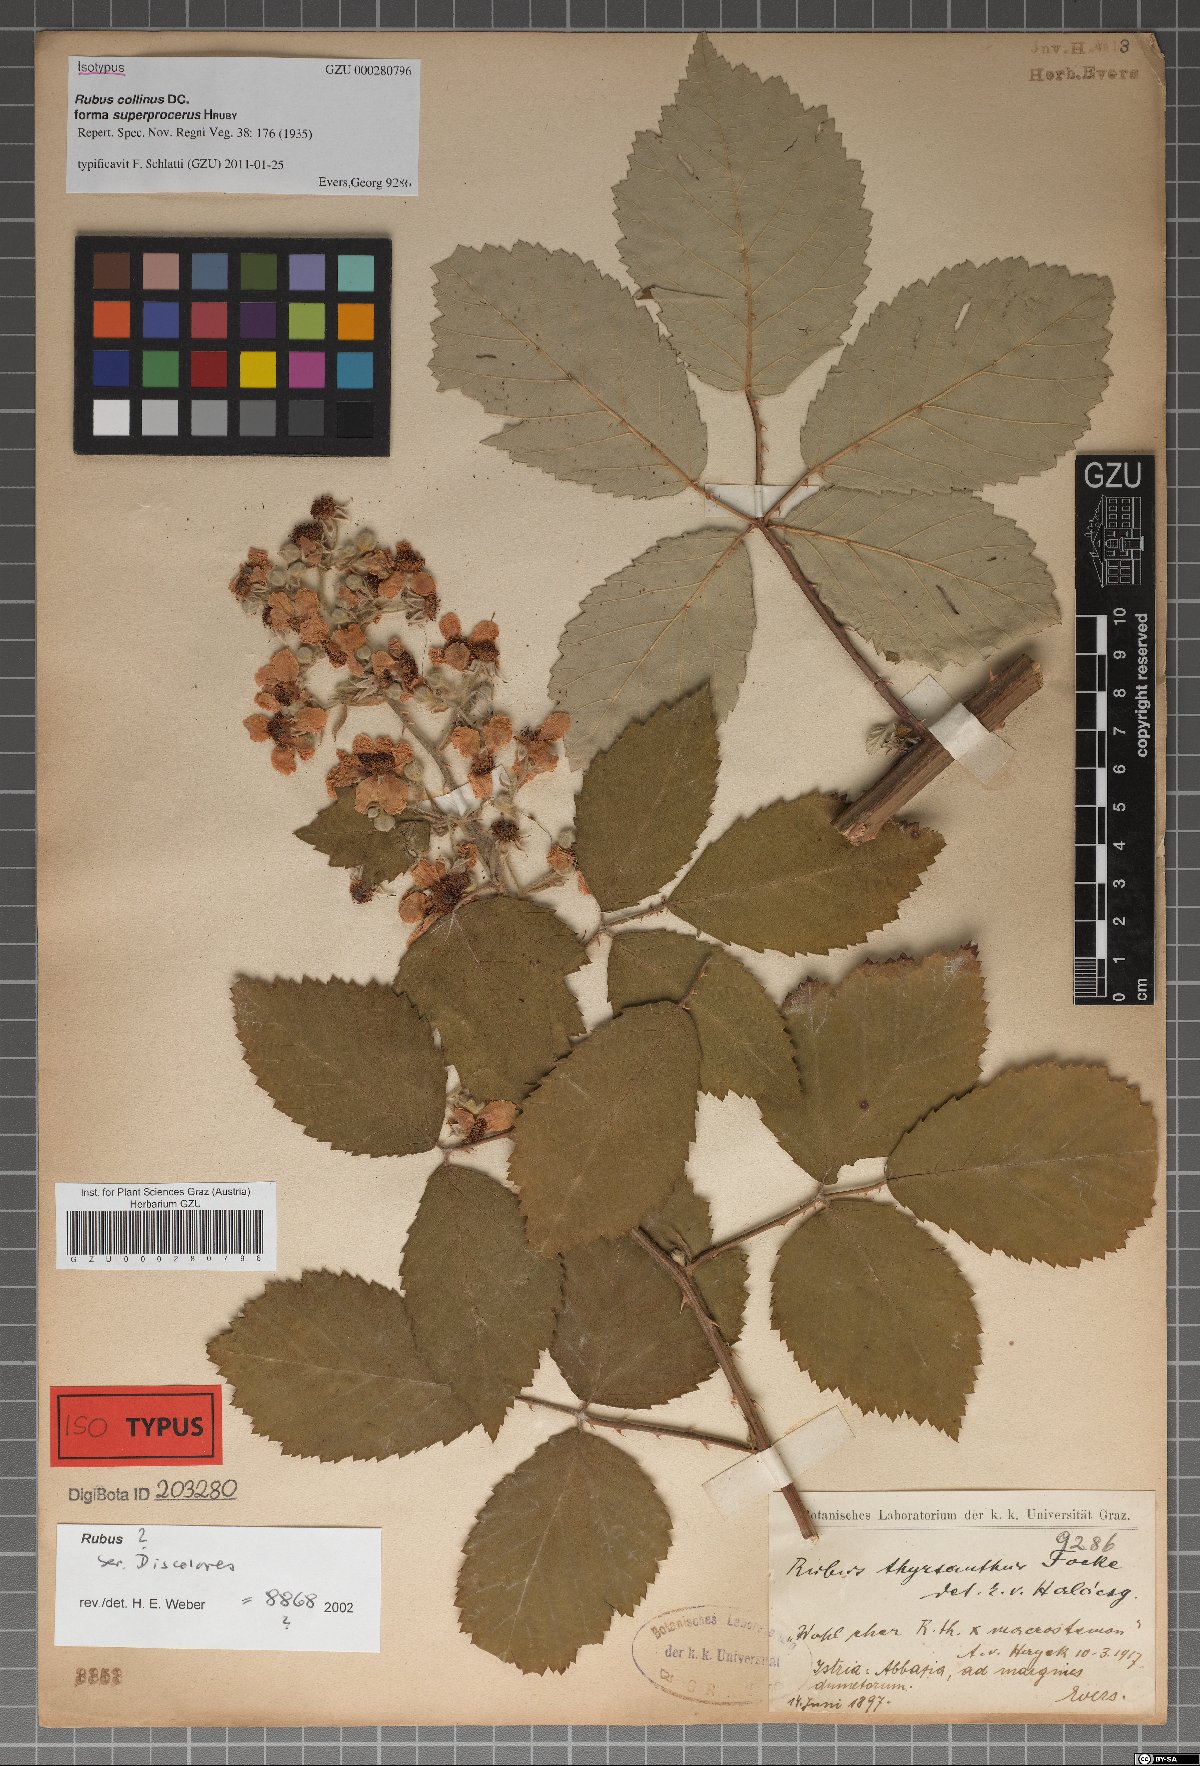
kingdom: Plantae
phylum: Tracheophyta
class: Magnoliopsida
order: Rosales
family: Rosaceae
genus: Rubus
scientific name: Rubus collinus
